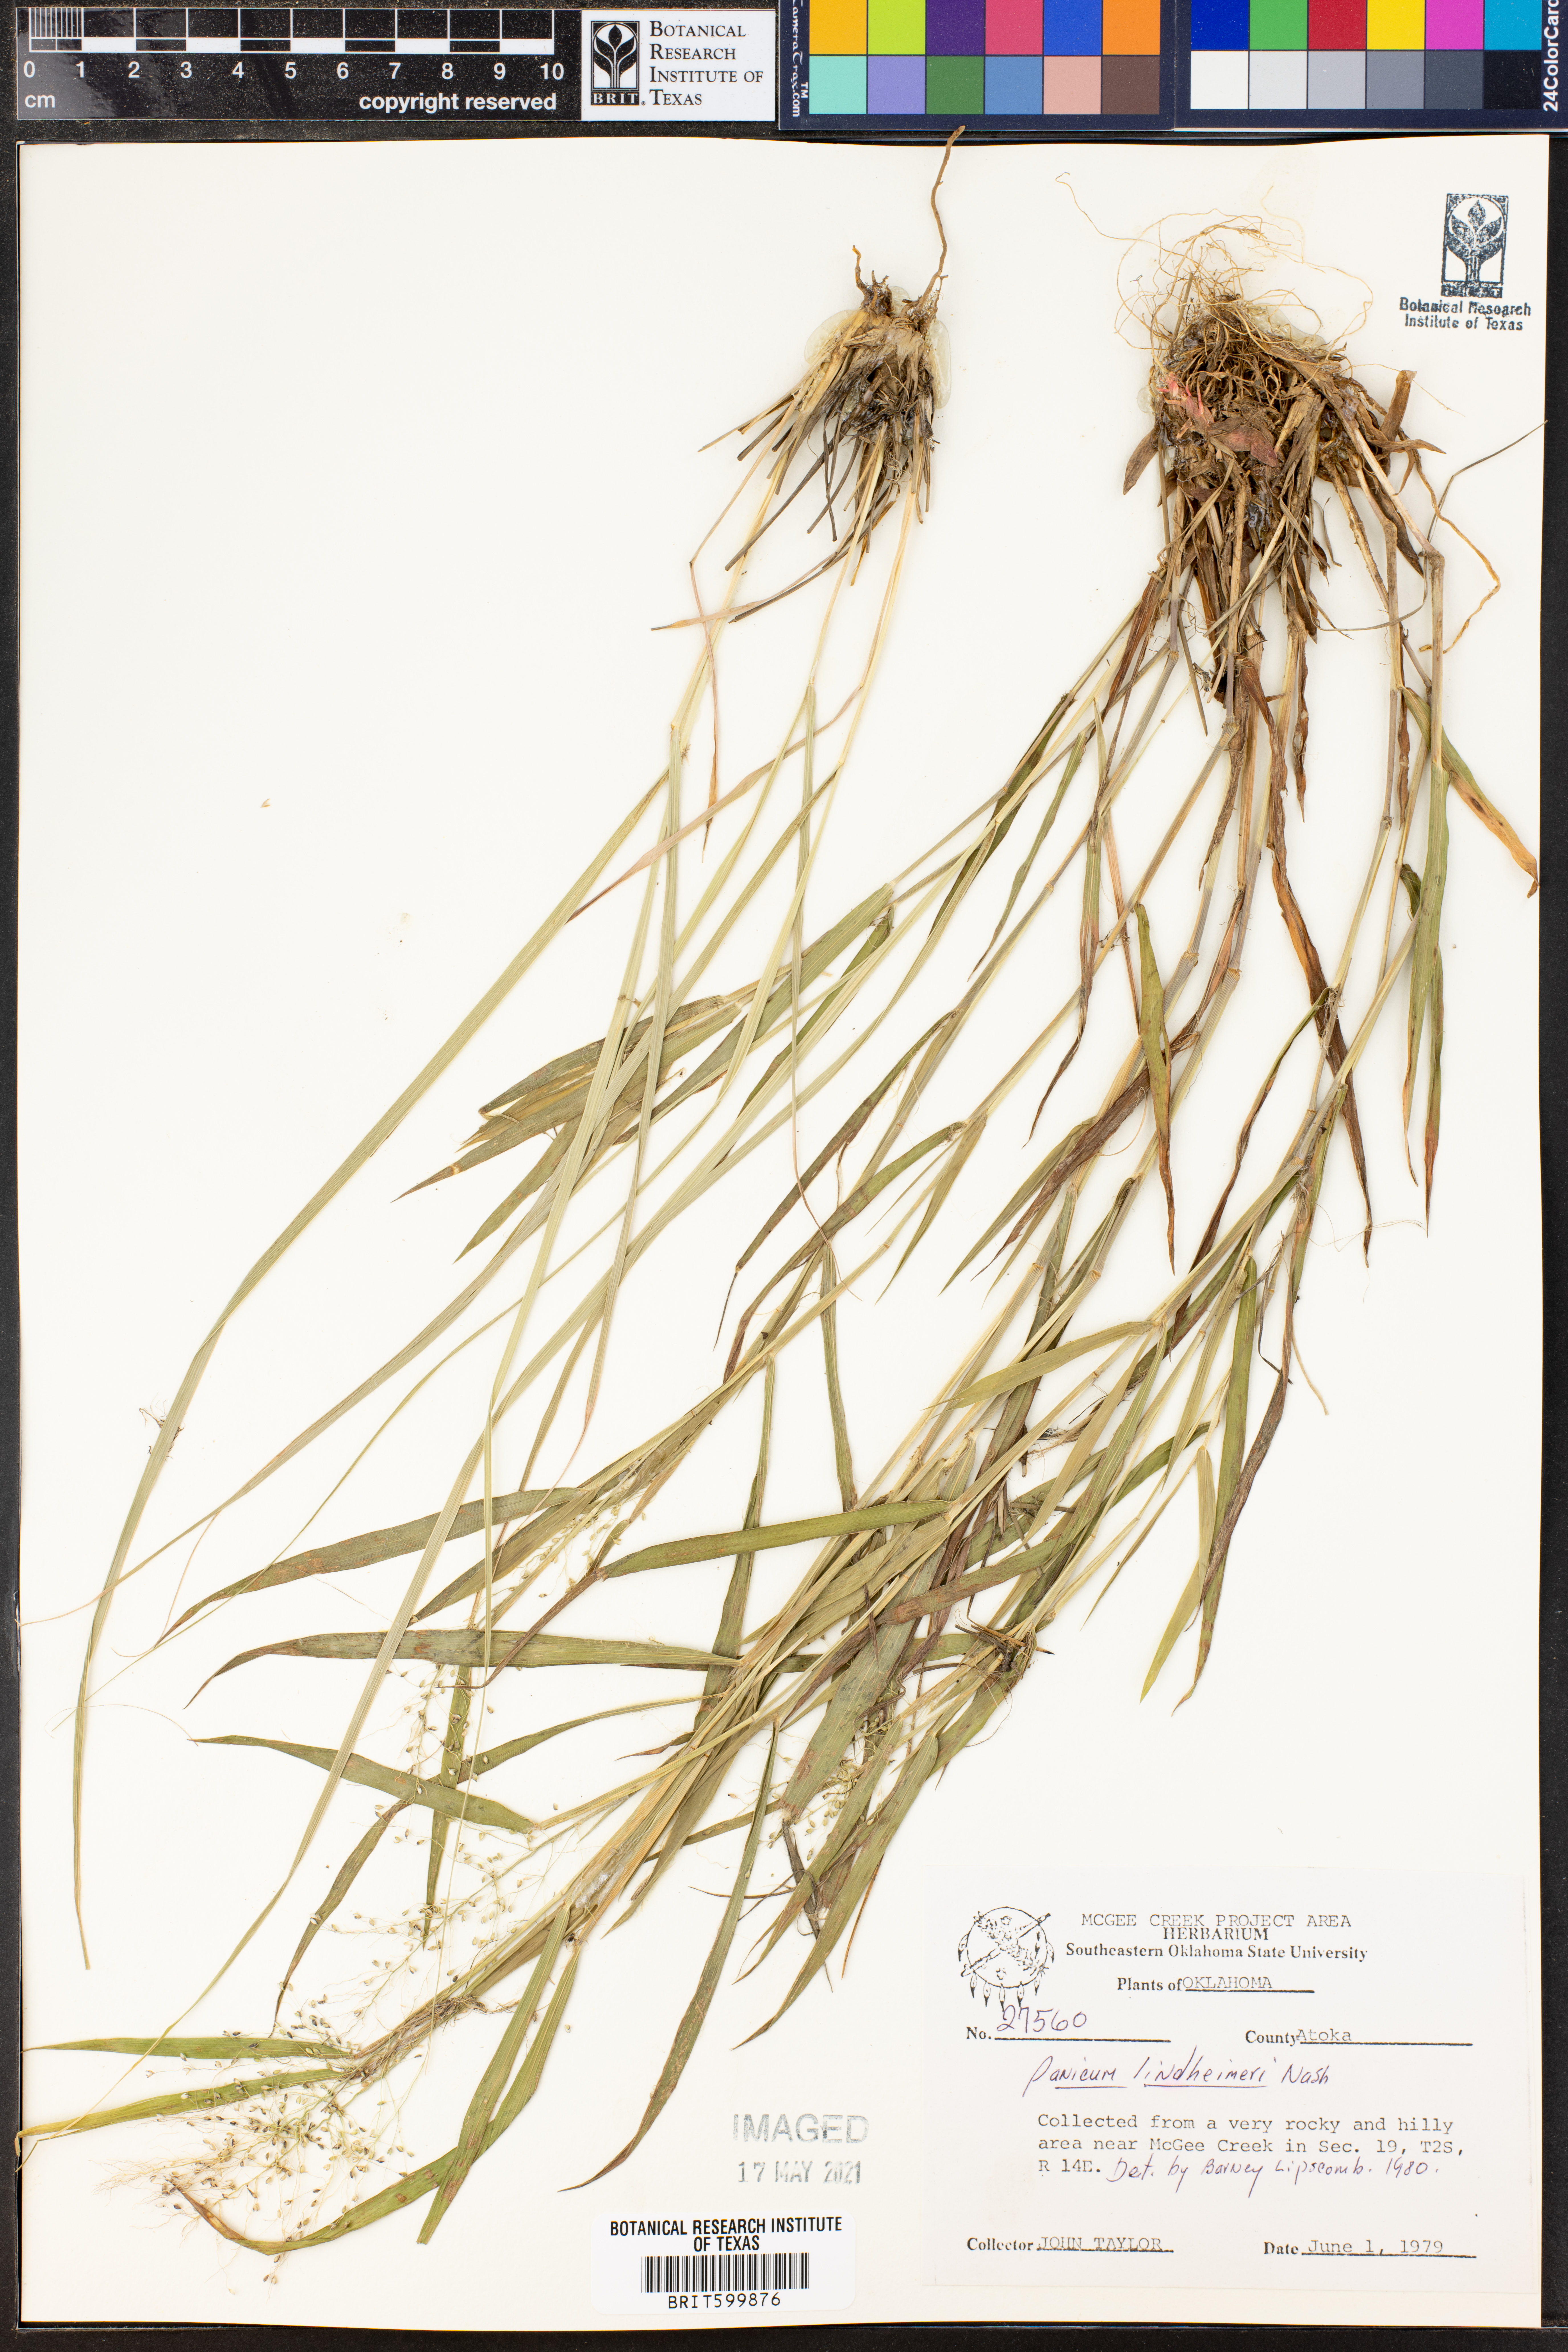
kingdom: Plantae
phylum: Tracheophyta
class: Liliopsida
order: Poales
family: Poaceae
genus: Dichanthelium
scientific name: Dichanthelium lindheimeri
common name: Lindheimer's panicgrass
